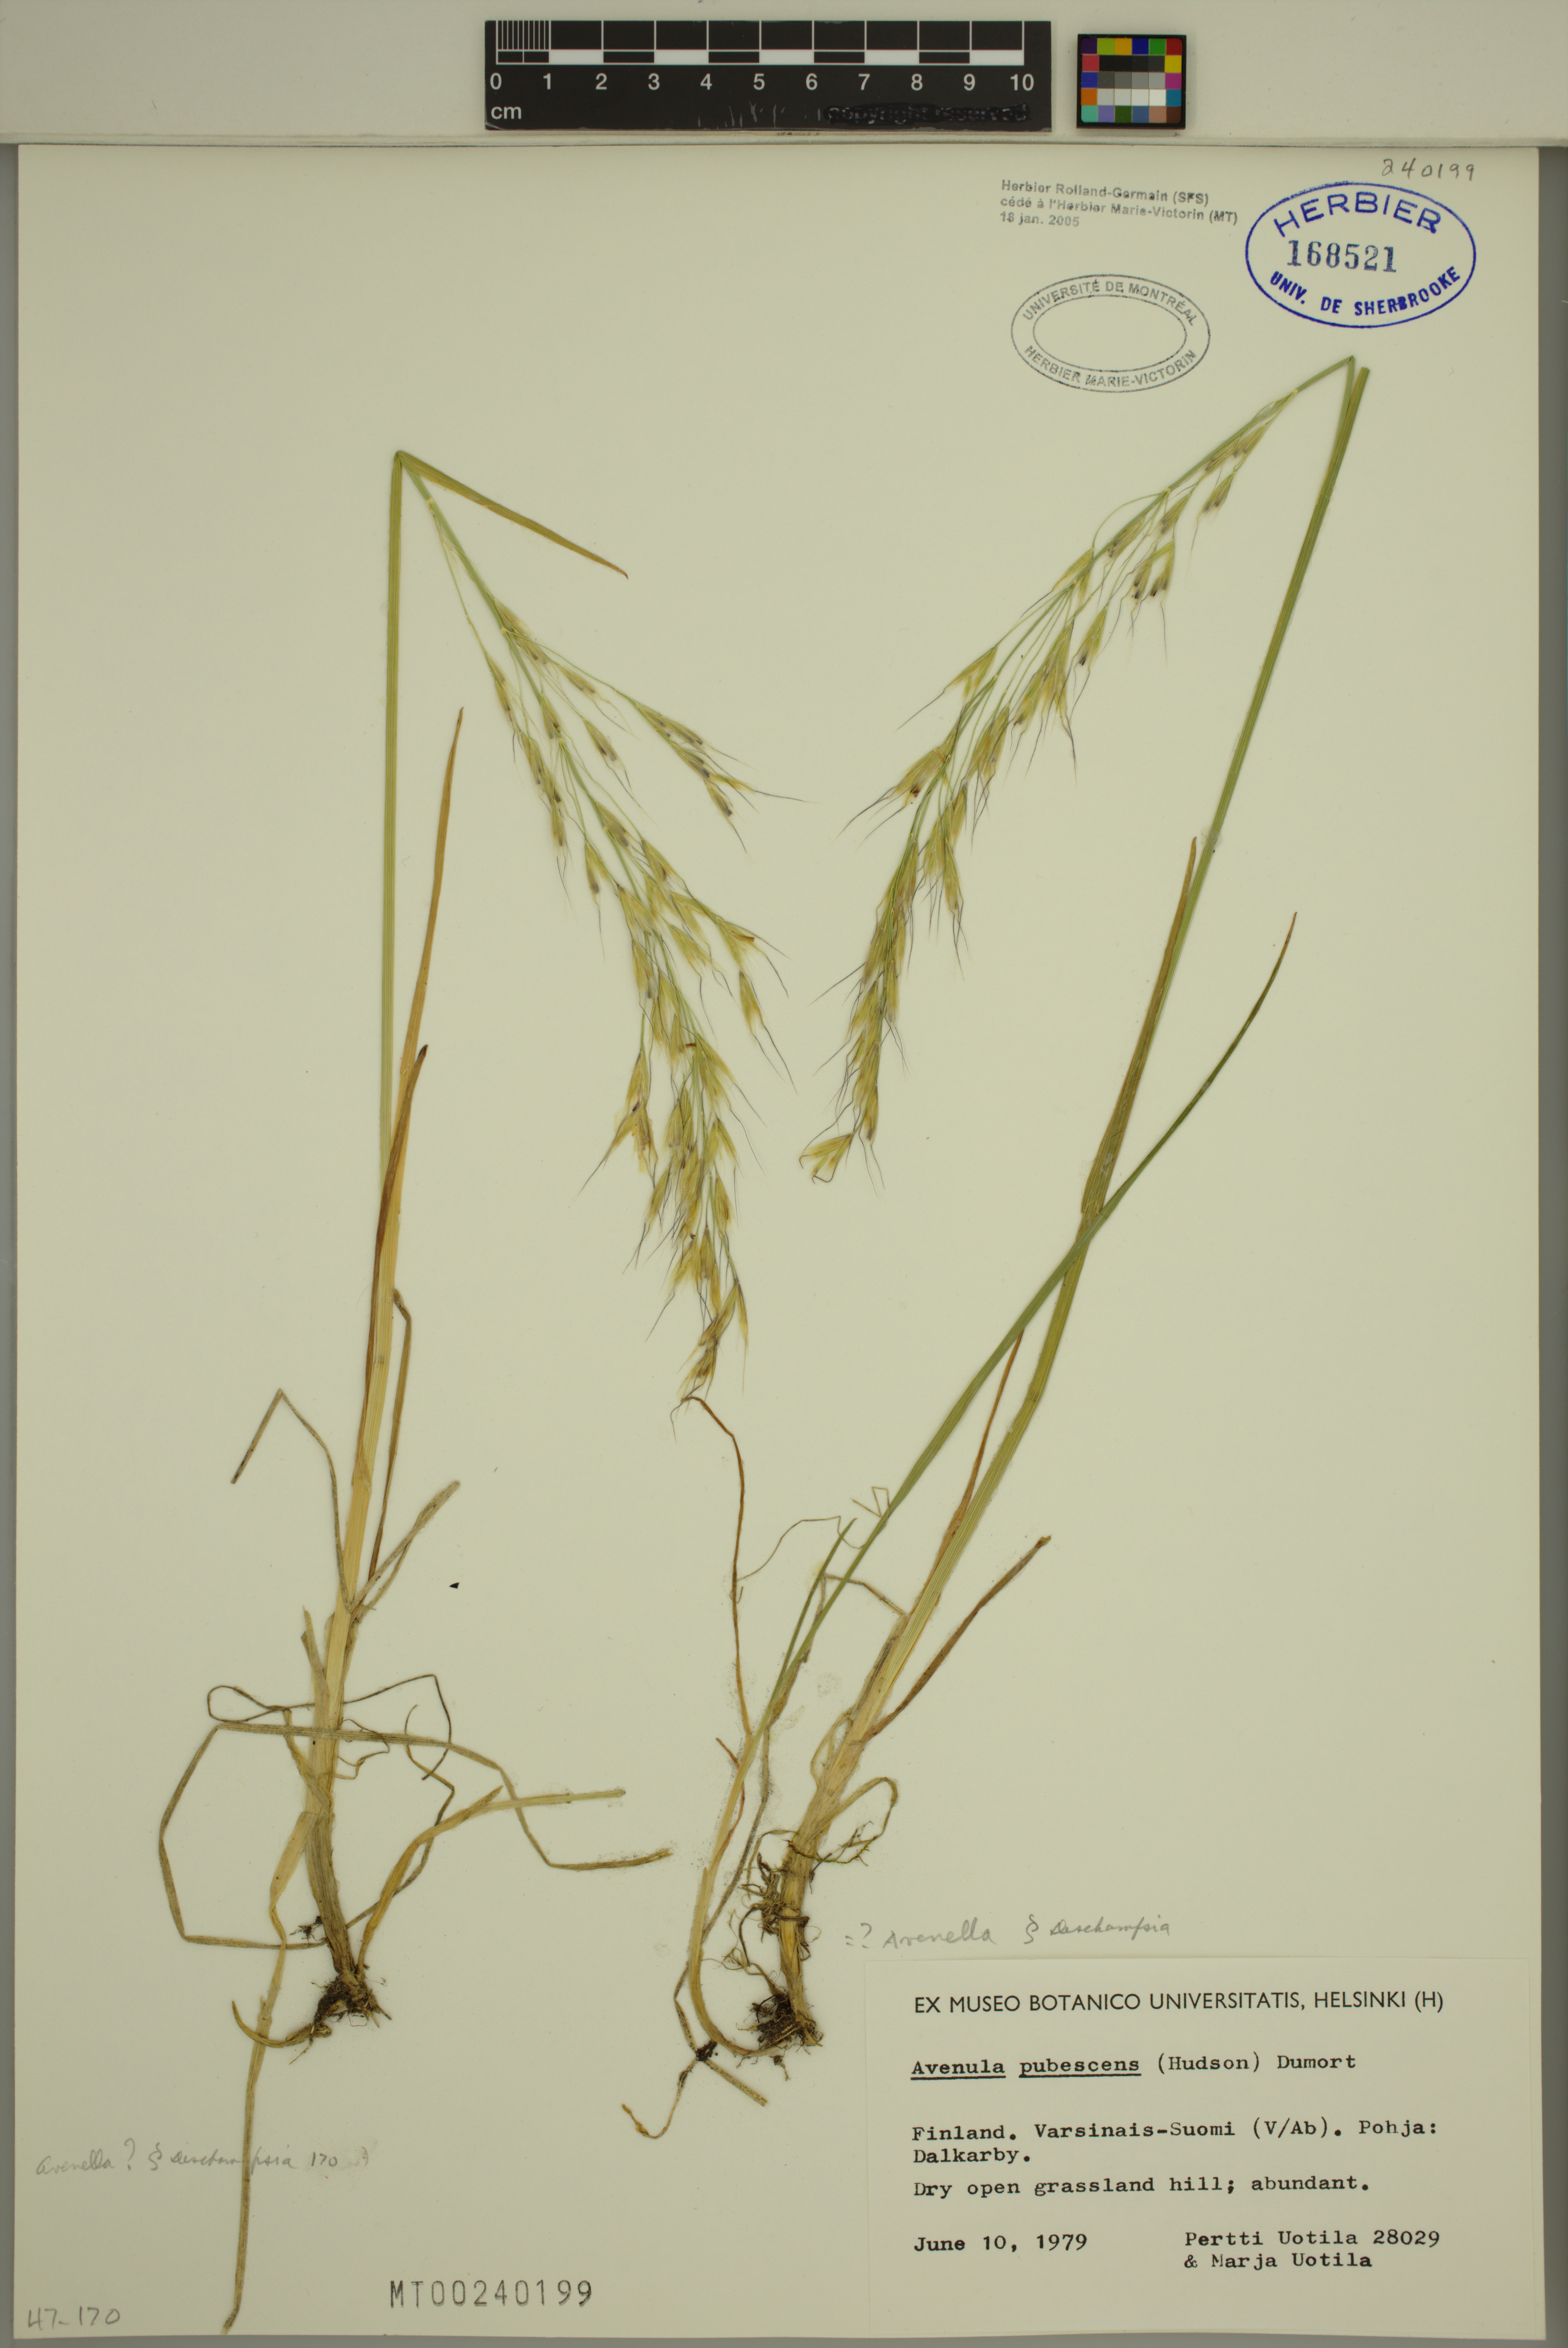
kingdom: Plantae
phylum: Tracheophyta
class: Liliopsida
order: Poales
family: Poaceae
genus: Avenula
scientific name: Avenula pubescens
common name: Downy alpine oatgrass
